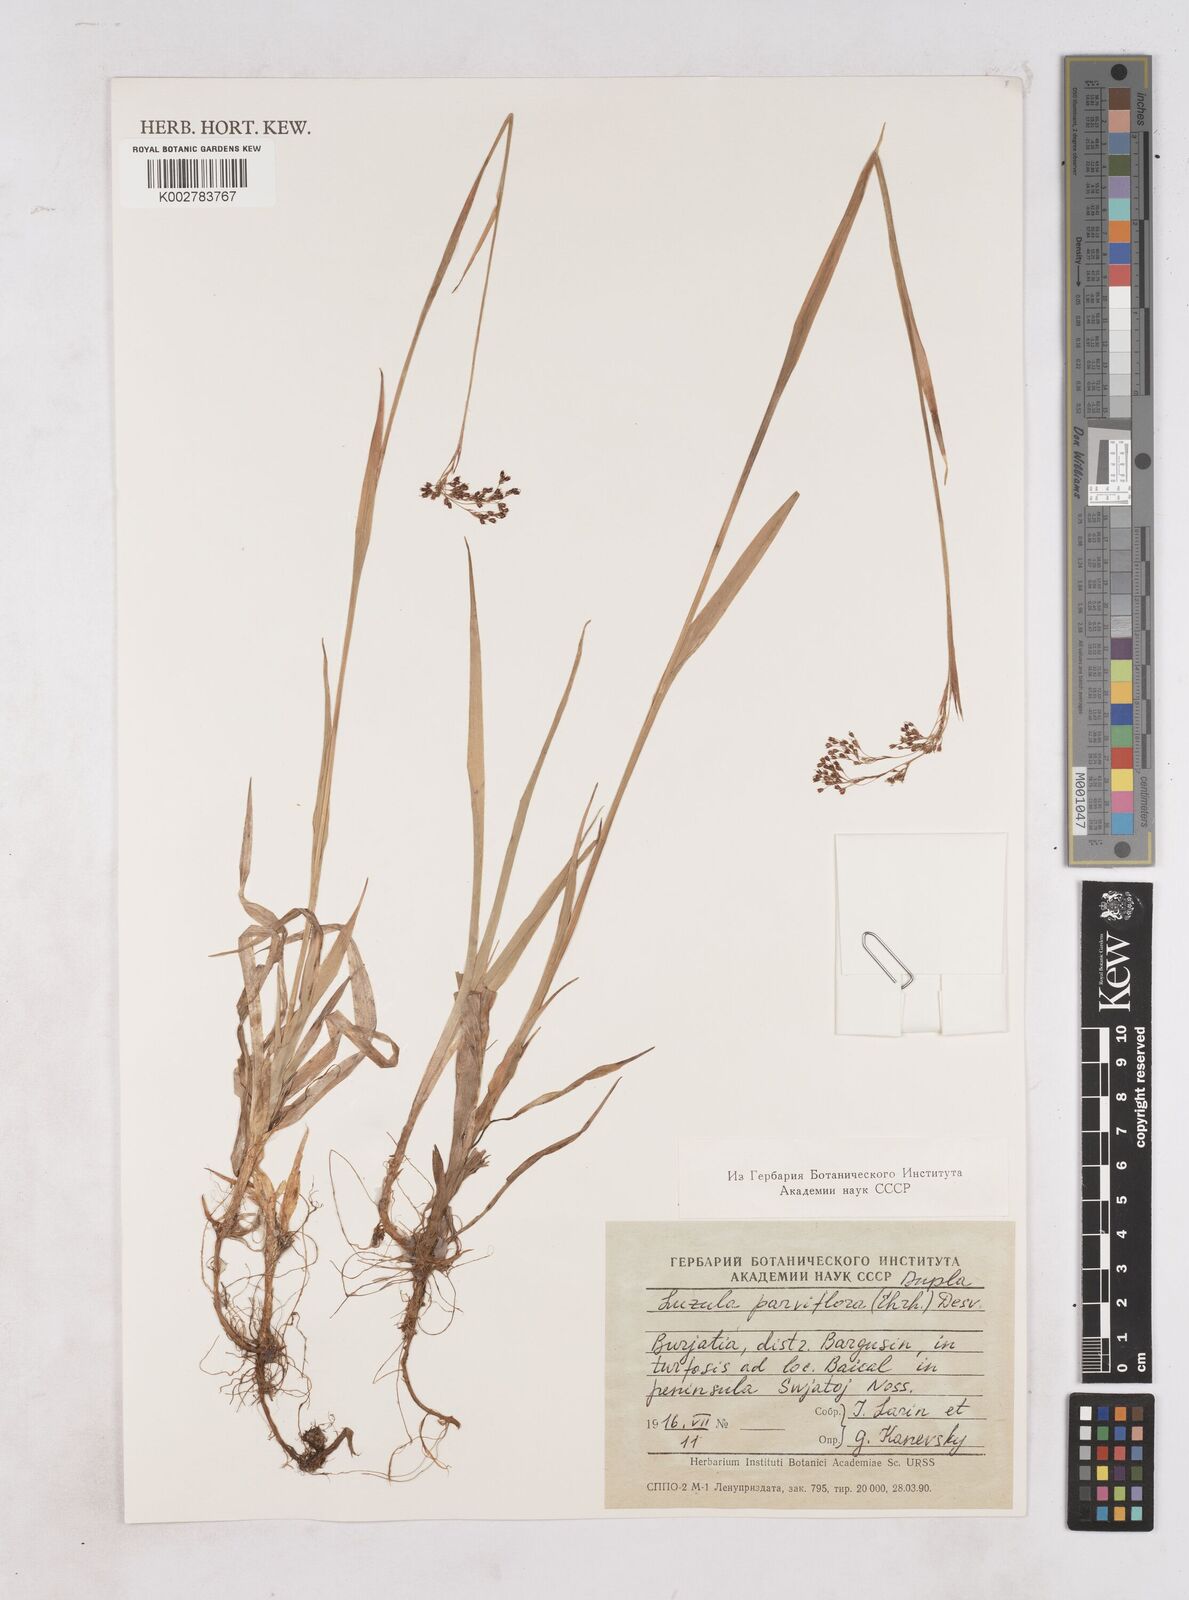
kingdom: Plantae
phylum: Tracheophyta
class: Liliopsida
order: Poales
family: Juncaceae
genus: Luzula
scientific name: Luzula parviflora
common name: Millet woodrush
